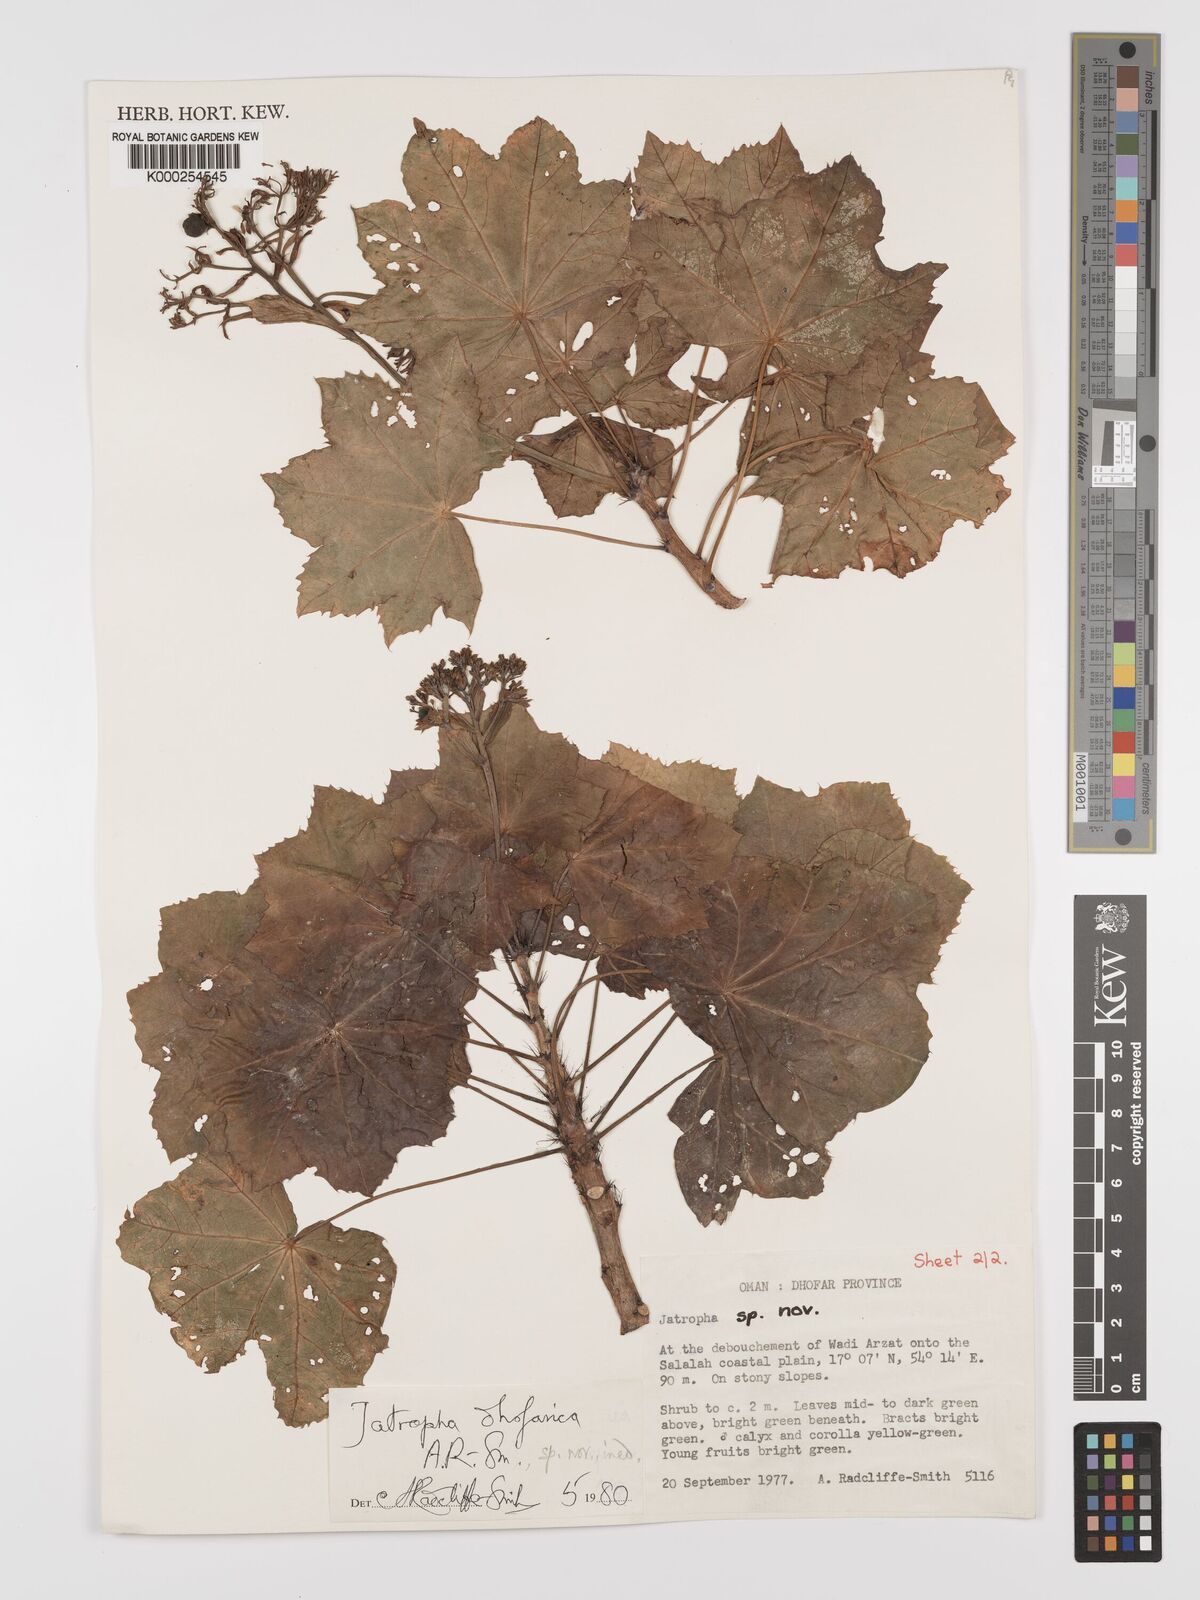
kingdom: Plantae
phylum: Tracheophyta
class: Magnoliopsida
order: Malpighiales
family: Euphorbiaceae
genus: Jatropha
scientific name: Jatropha dhofarica
